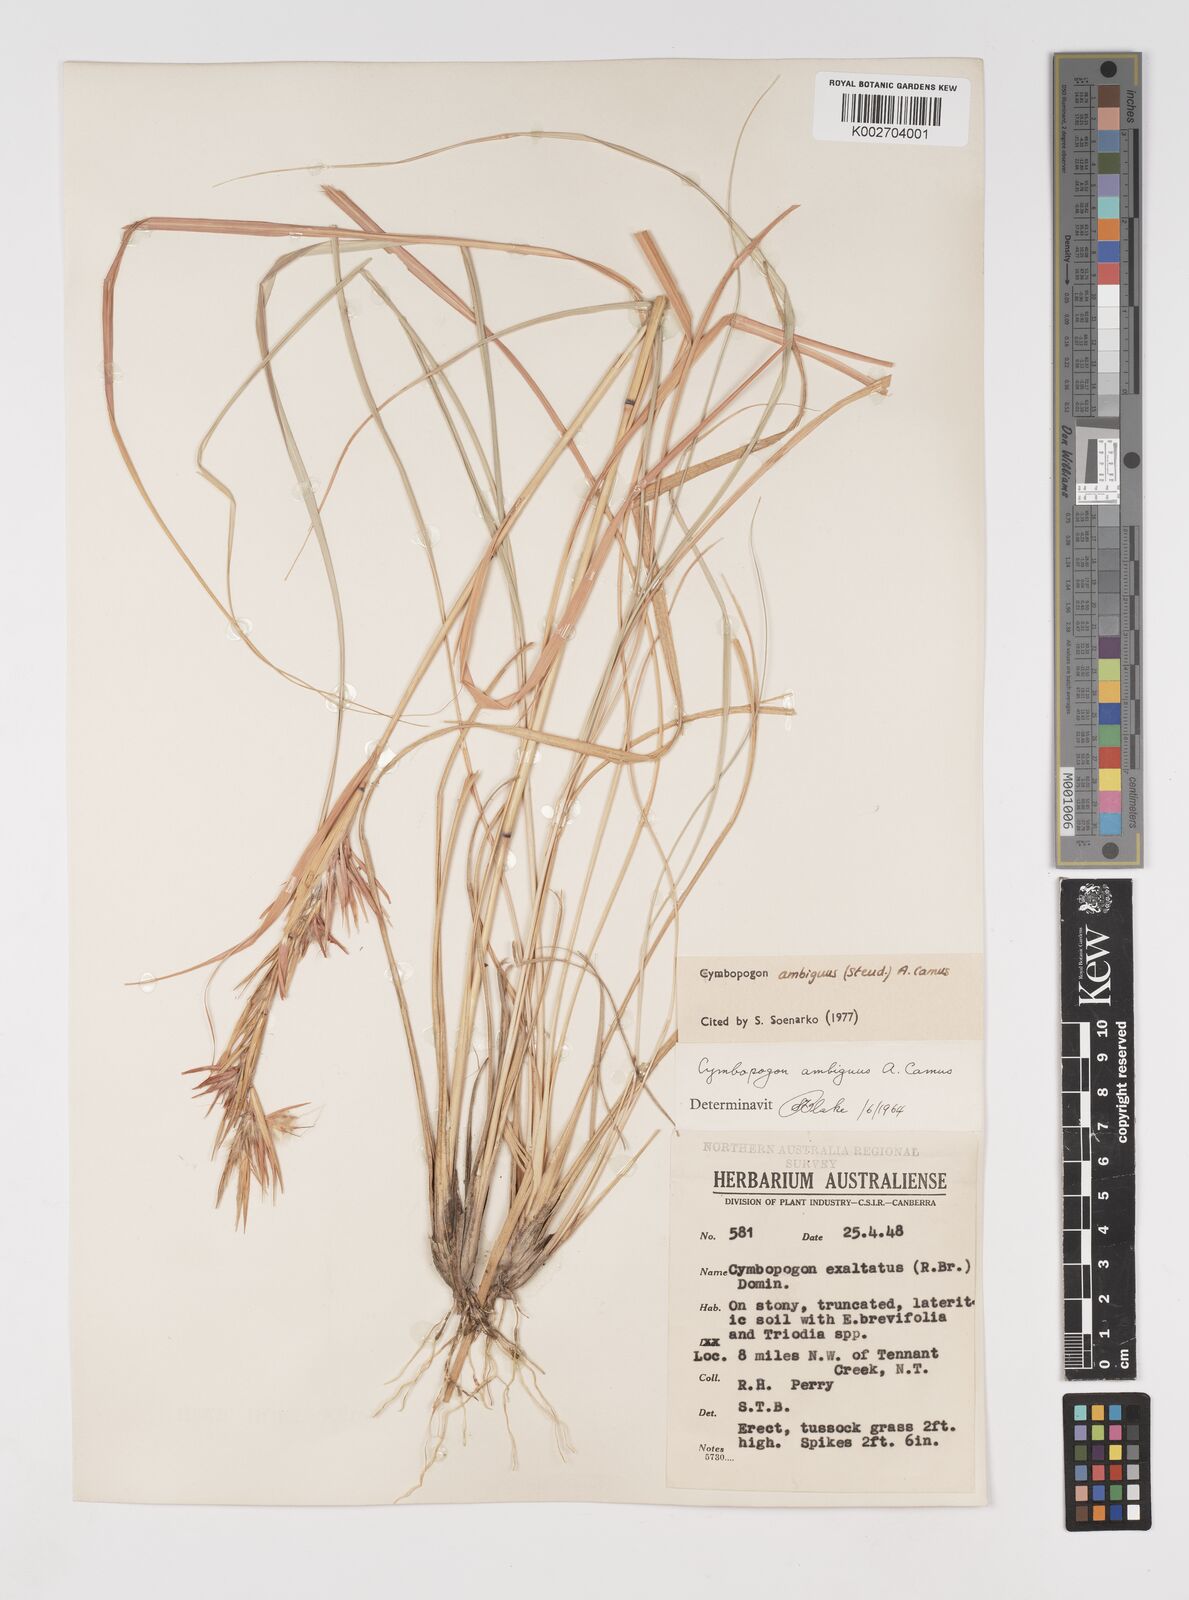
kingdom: Plantae
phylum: Tracheophyta
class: Liliopsida
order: Poales
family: Poaceae
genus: Cymbopogon
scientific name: Cymbopogon ambiguus
